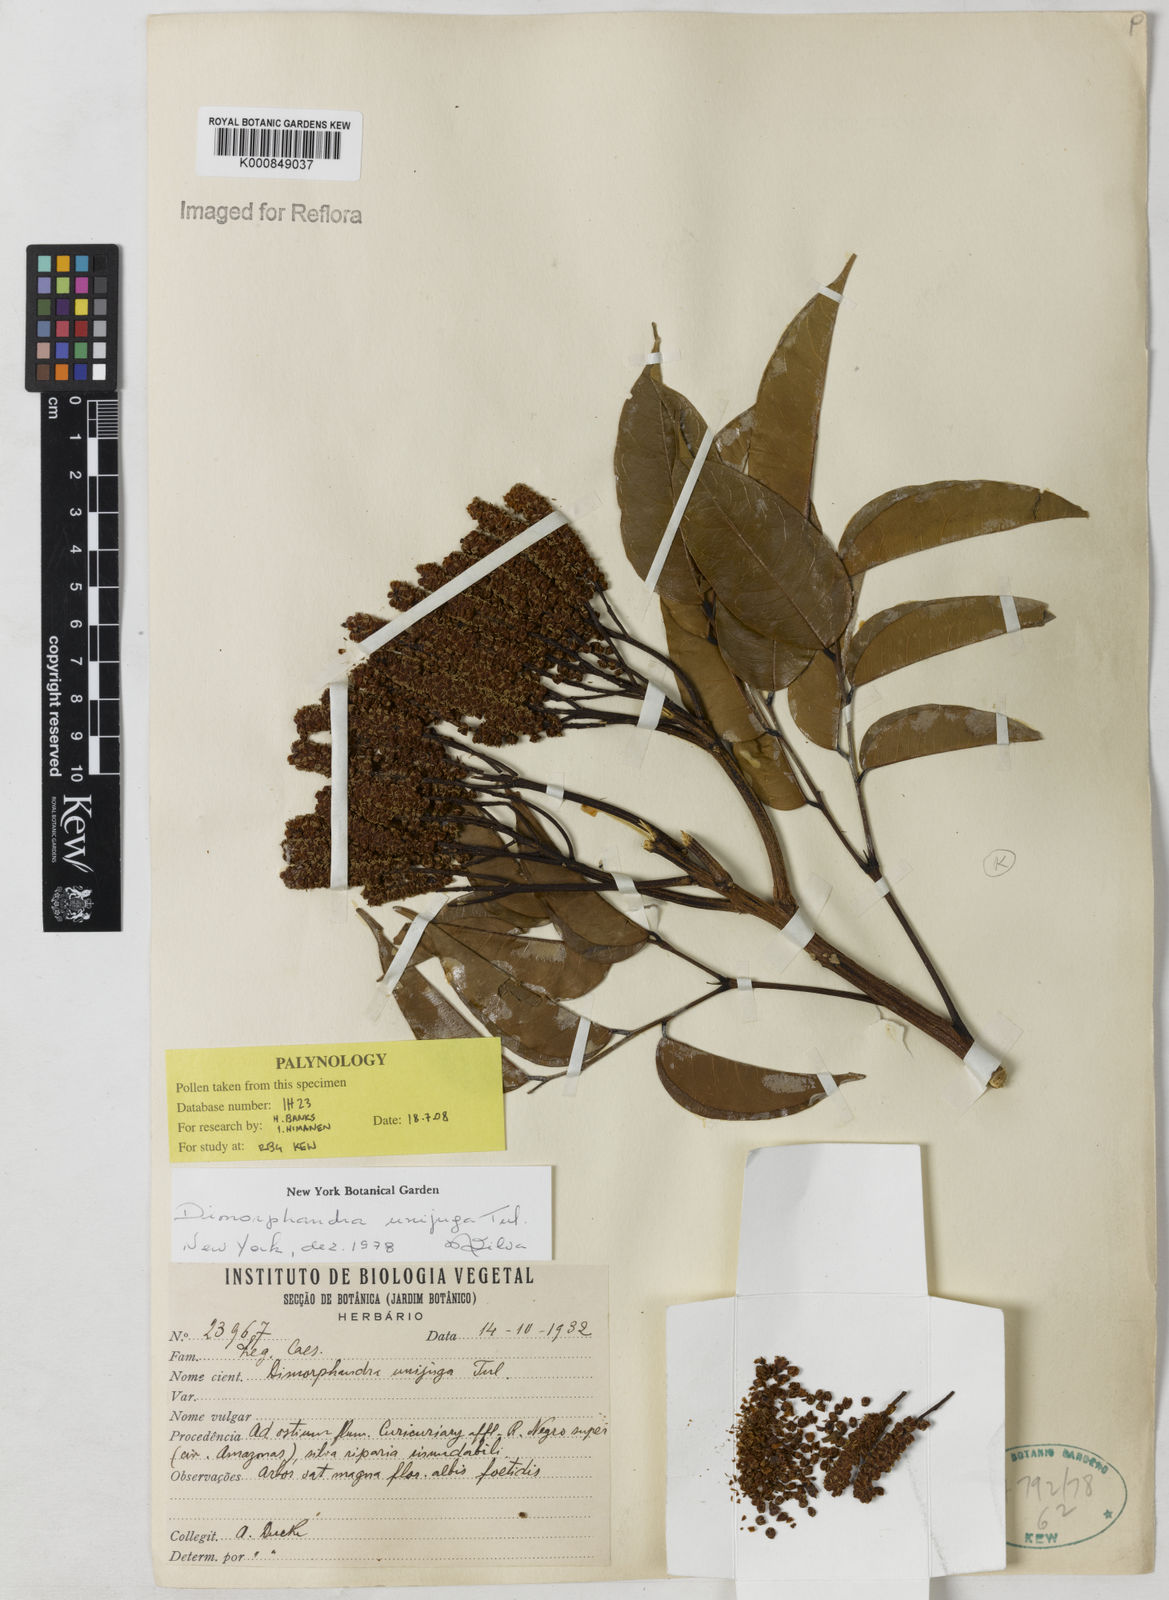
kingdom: Plantae
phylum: Tracheophyta
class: Magnoliopsida
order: Fabales
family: Fabaceae
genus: Dimorphandra
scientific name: Dimorphandra unijuga
